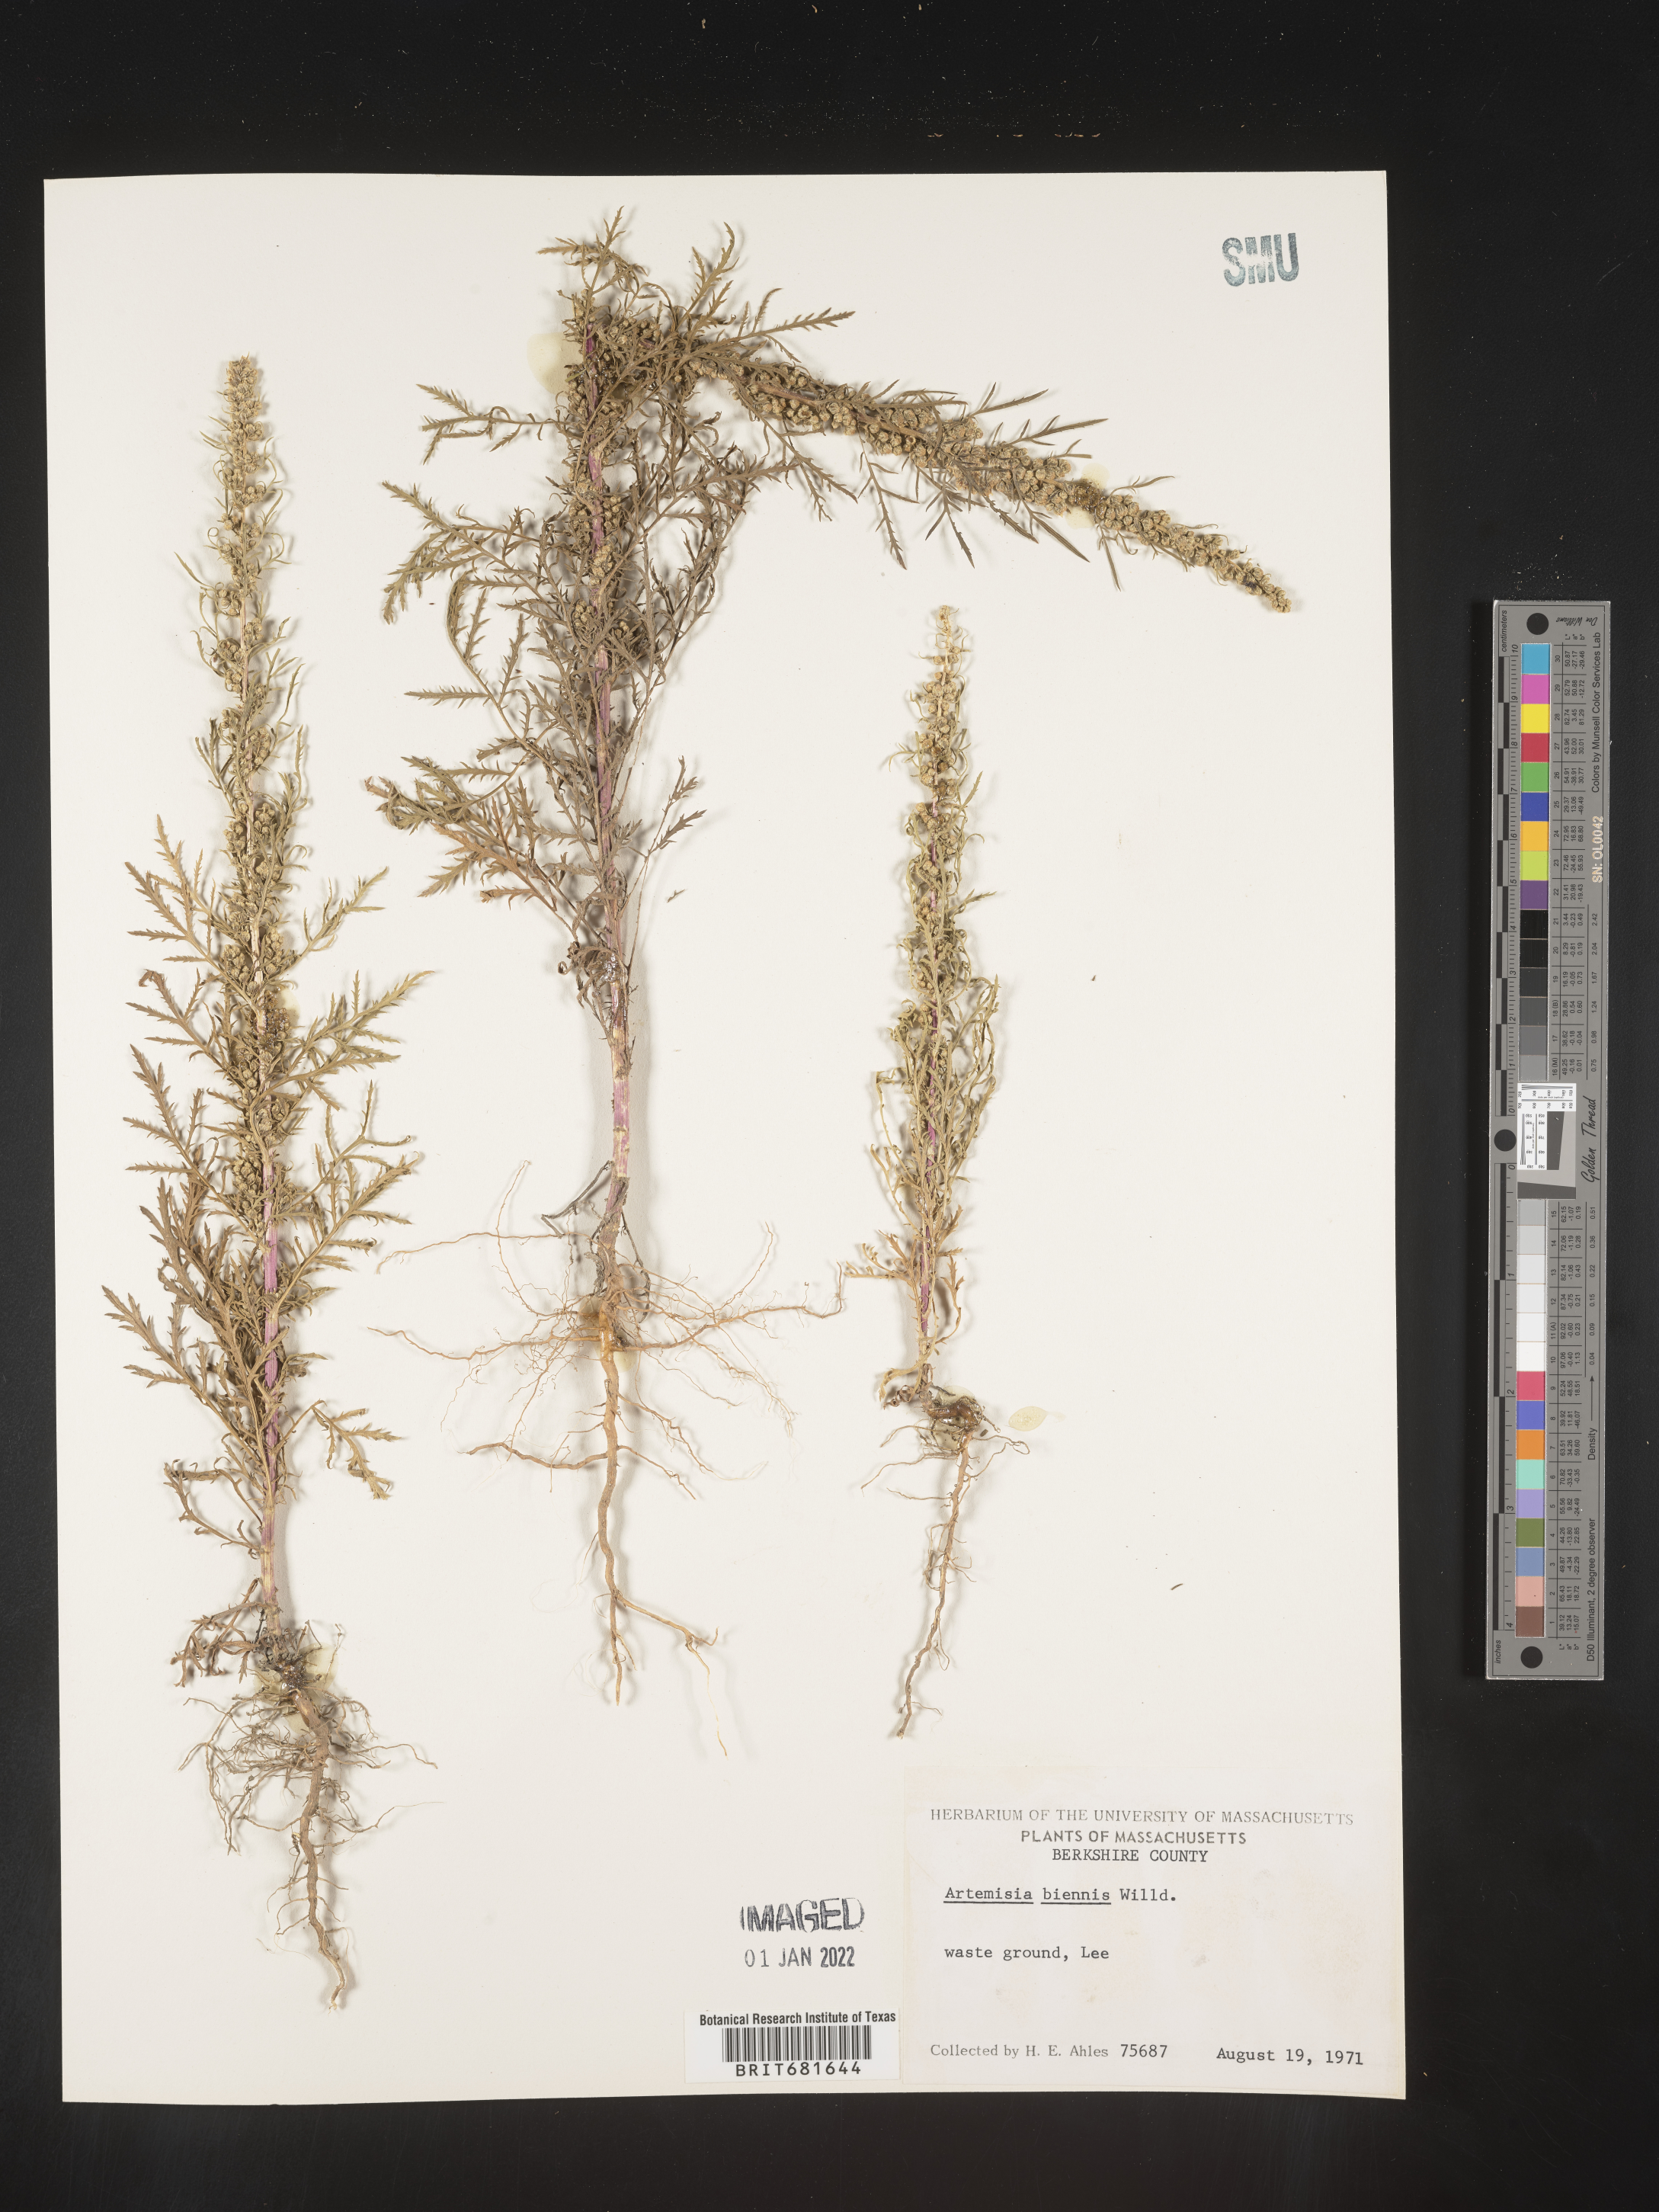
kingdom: Plantae
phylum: Tracheophyta
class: Magnoliopsida
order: Asterales
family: Asteraceae
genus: Artemisia
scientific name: Artemisia biennis
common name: Biennial wormwood
